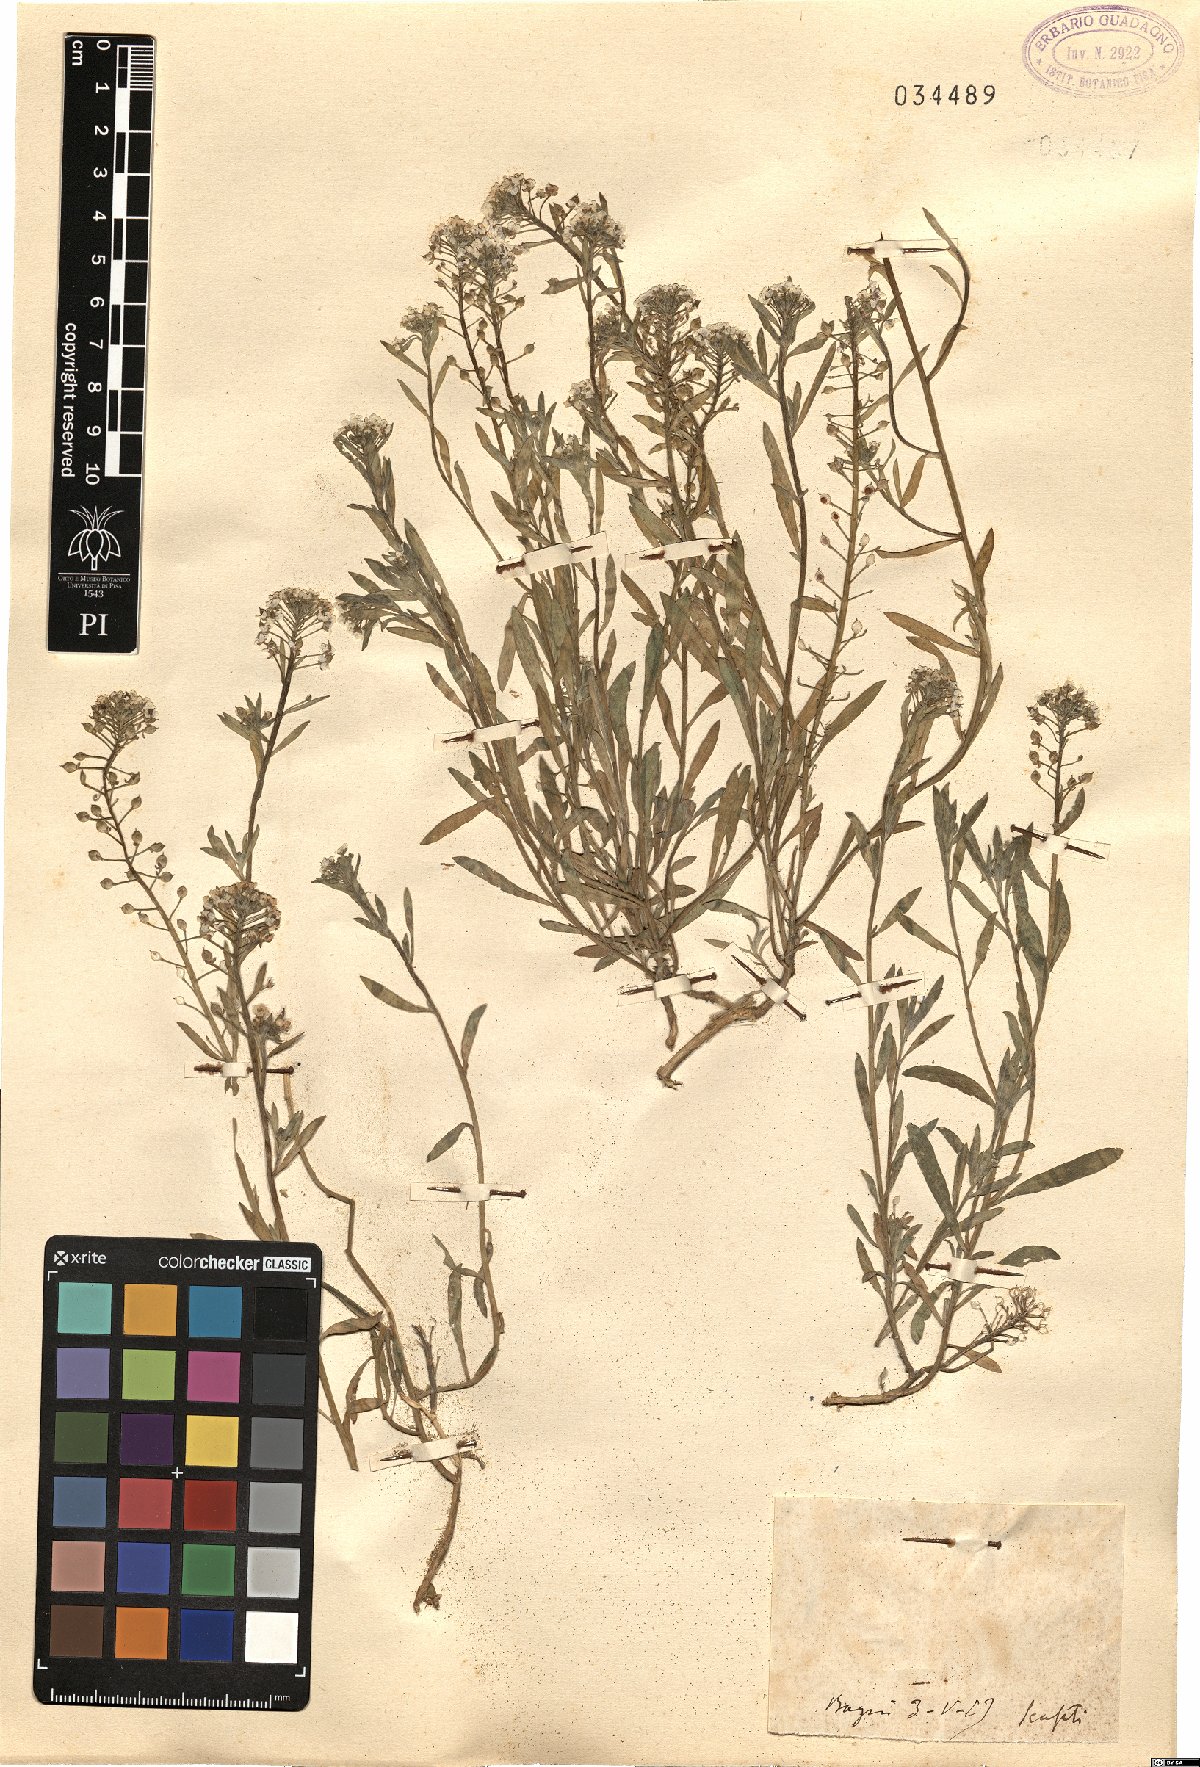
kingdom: Plantae
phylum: Tracheophyta
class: Magnoliopsida
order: Brassicales
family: Brassicaceae
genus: Alyssum
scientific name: Alyssum
